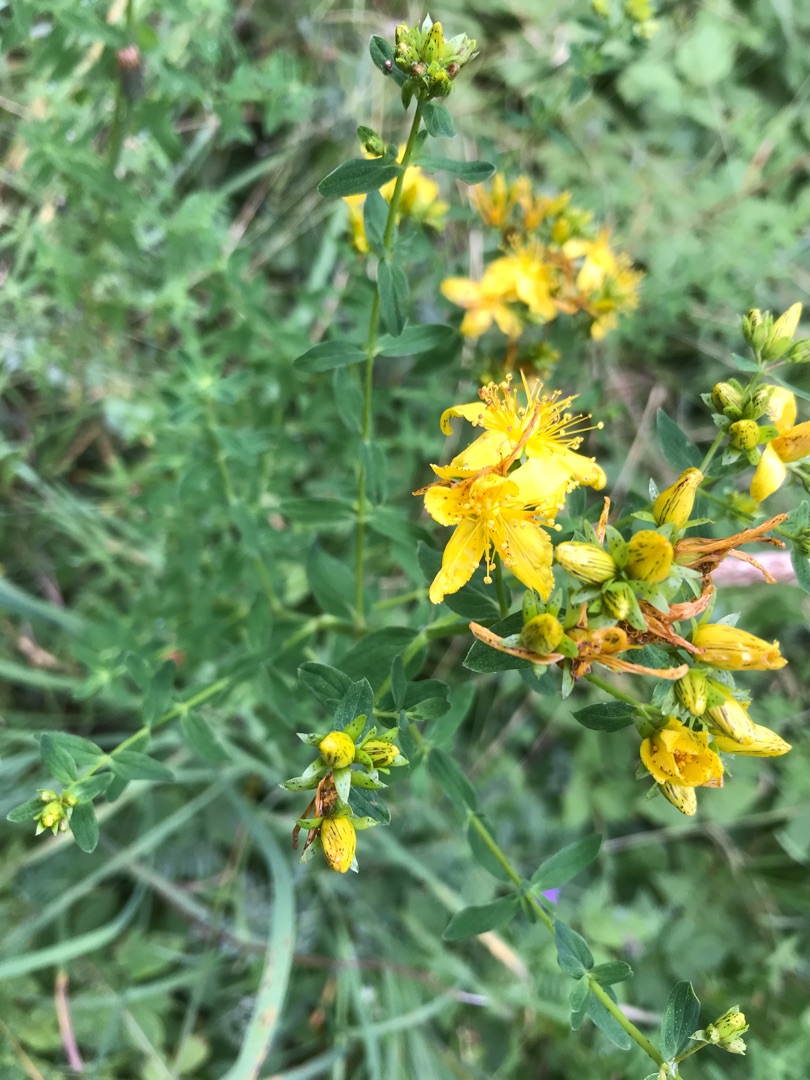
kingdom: Plantae
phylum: Tracheophyta
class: Magnoliopsida
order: Malpighiales
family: Hypericaceae
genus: Hypericum
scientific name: Hypericum perforatum
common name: Prikbladet perikon
